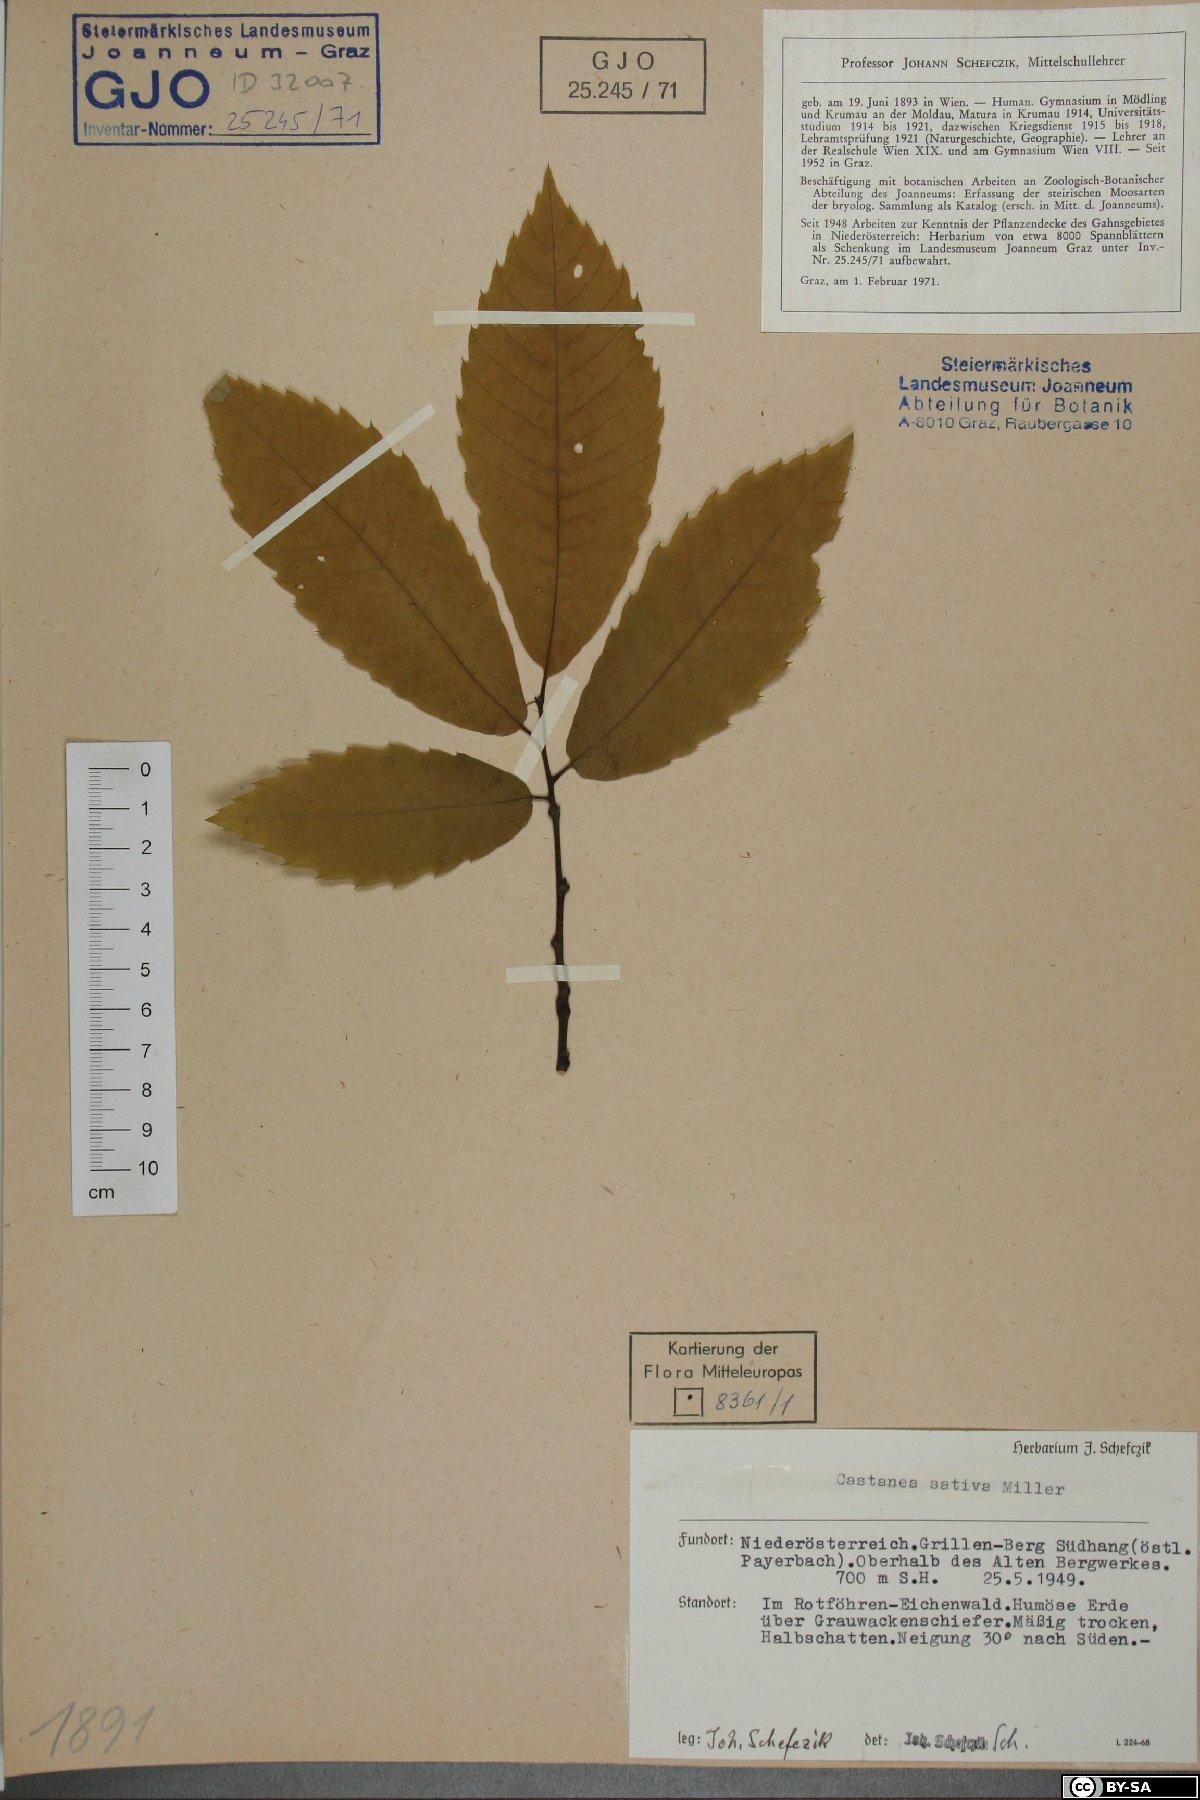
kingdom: Plantae
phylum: Tracheophyta
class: Magnoliopsida
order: Fagales
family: Fagaceae
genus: Castanea
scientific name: Castanea sativa
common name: Sweet chestnut
